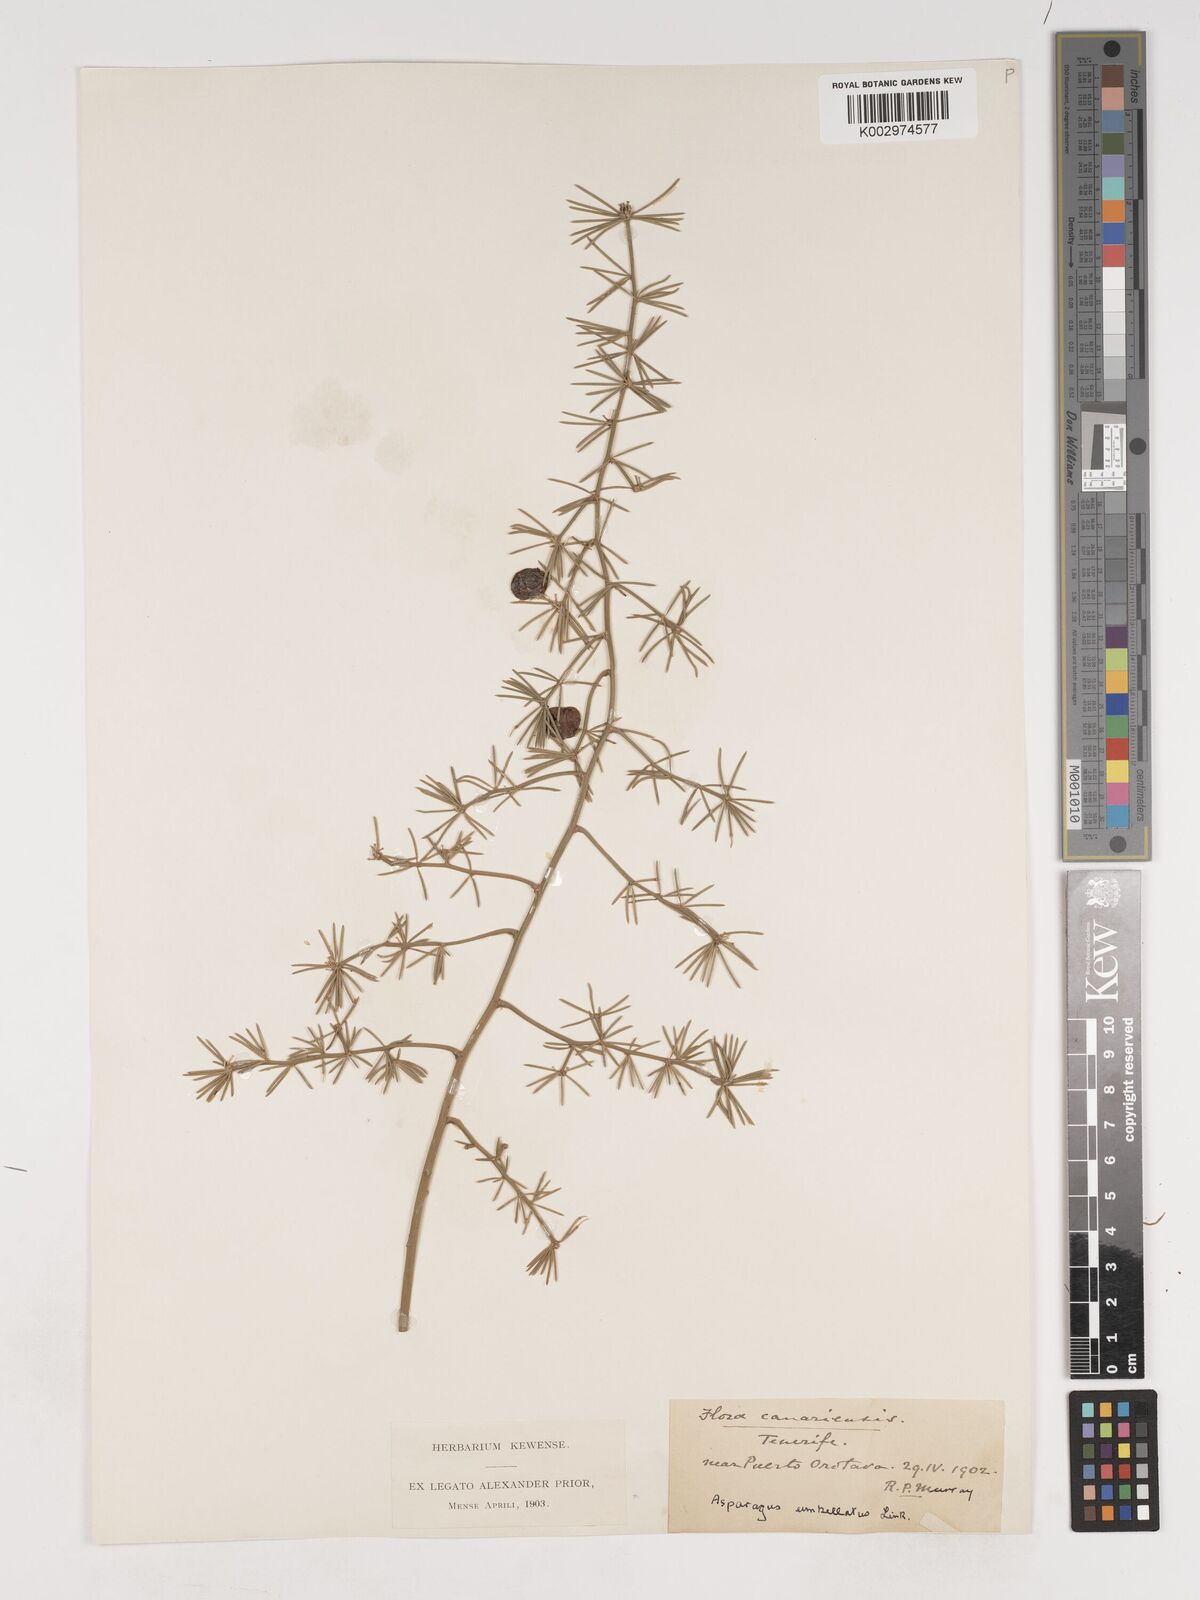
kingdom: Plantae
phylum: Tracheophyta
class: Liliopsida
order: Asparagales
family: Asparagaceae
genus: Asparagus
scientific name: Asparagus umbellatus
